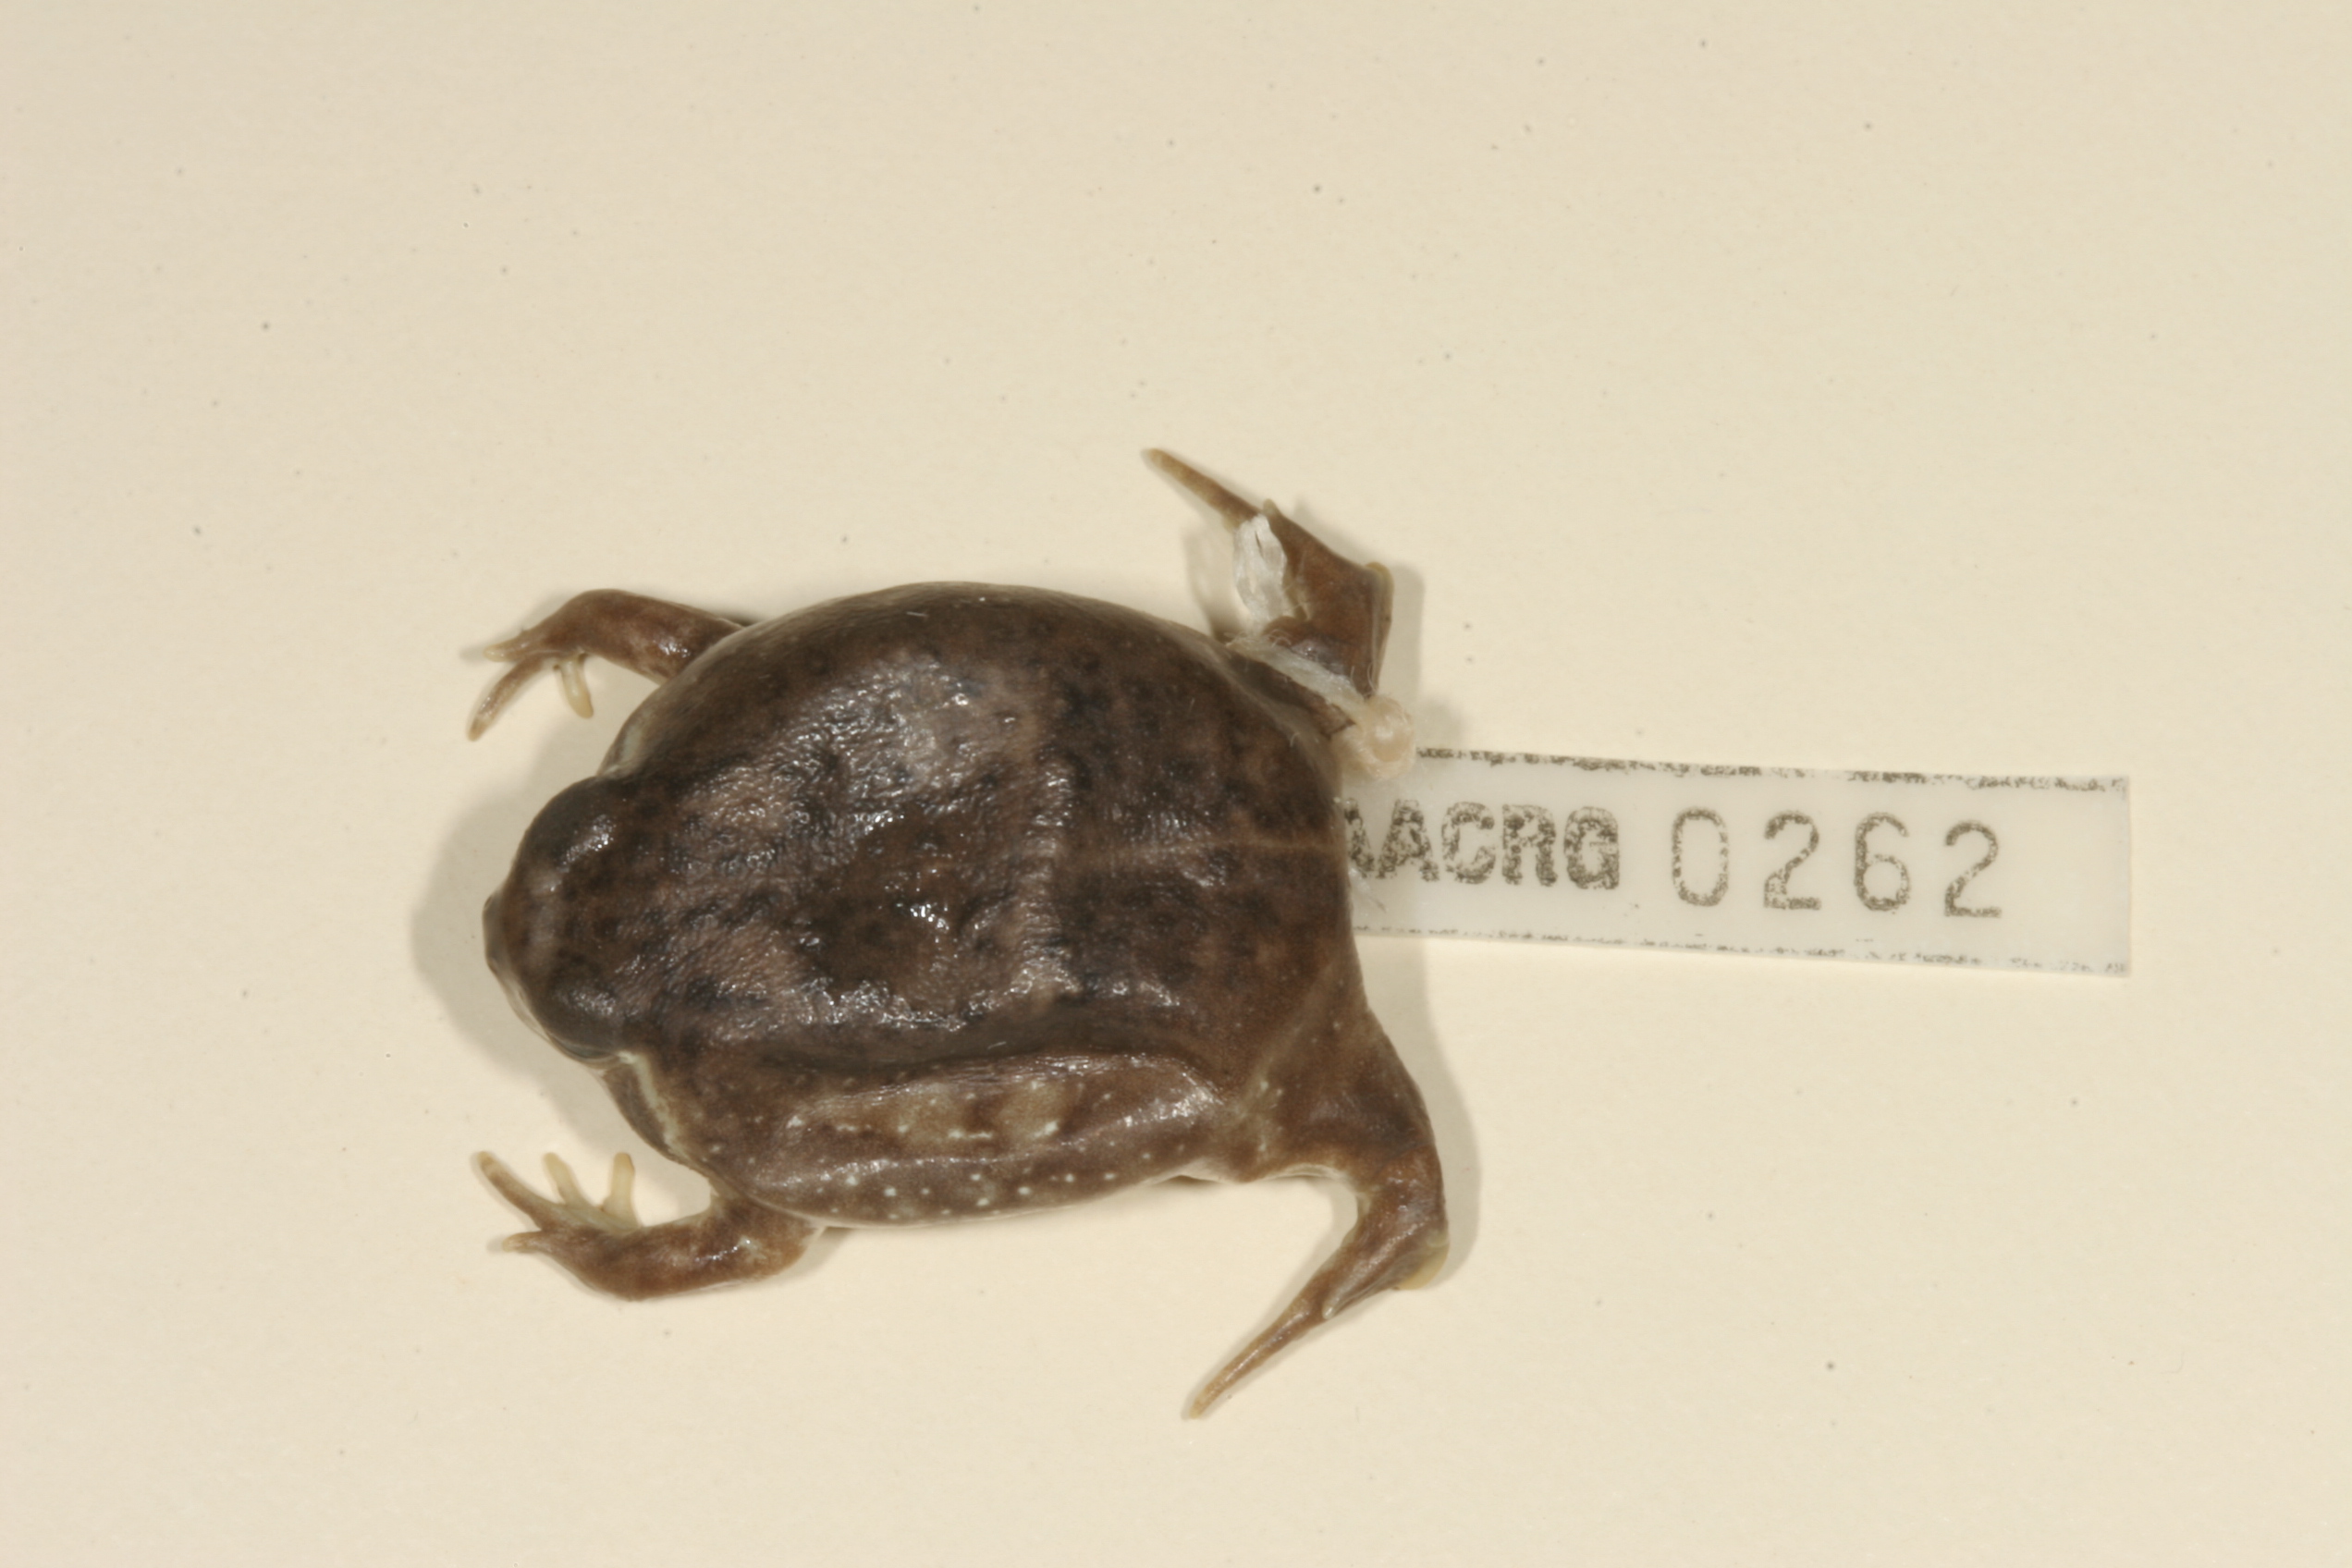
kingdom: Animalia
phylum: Chordata
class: Amphibia
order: Anura
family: Brevicipitidae
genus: Breviceps
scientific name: Breviceps adspersus
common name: Common rain frog
